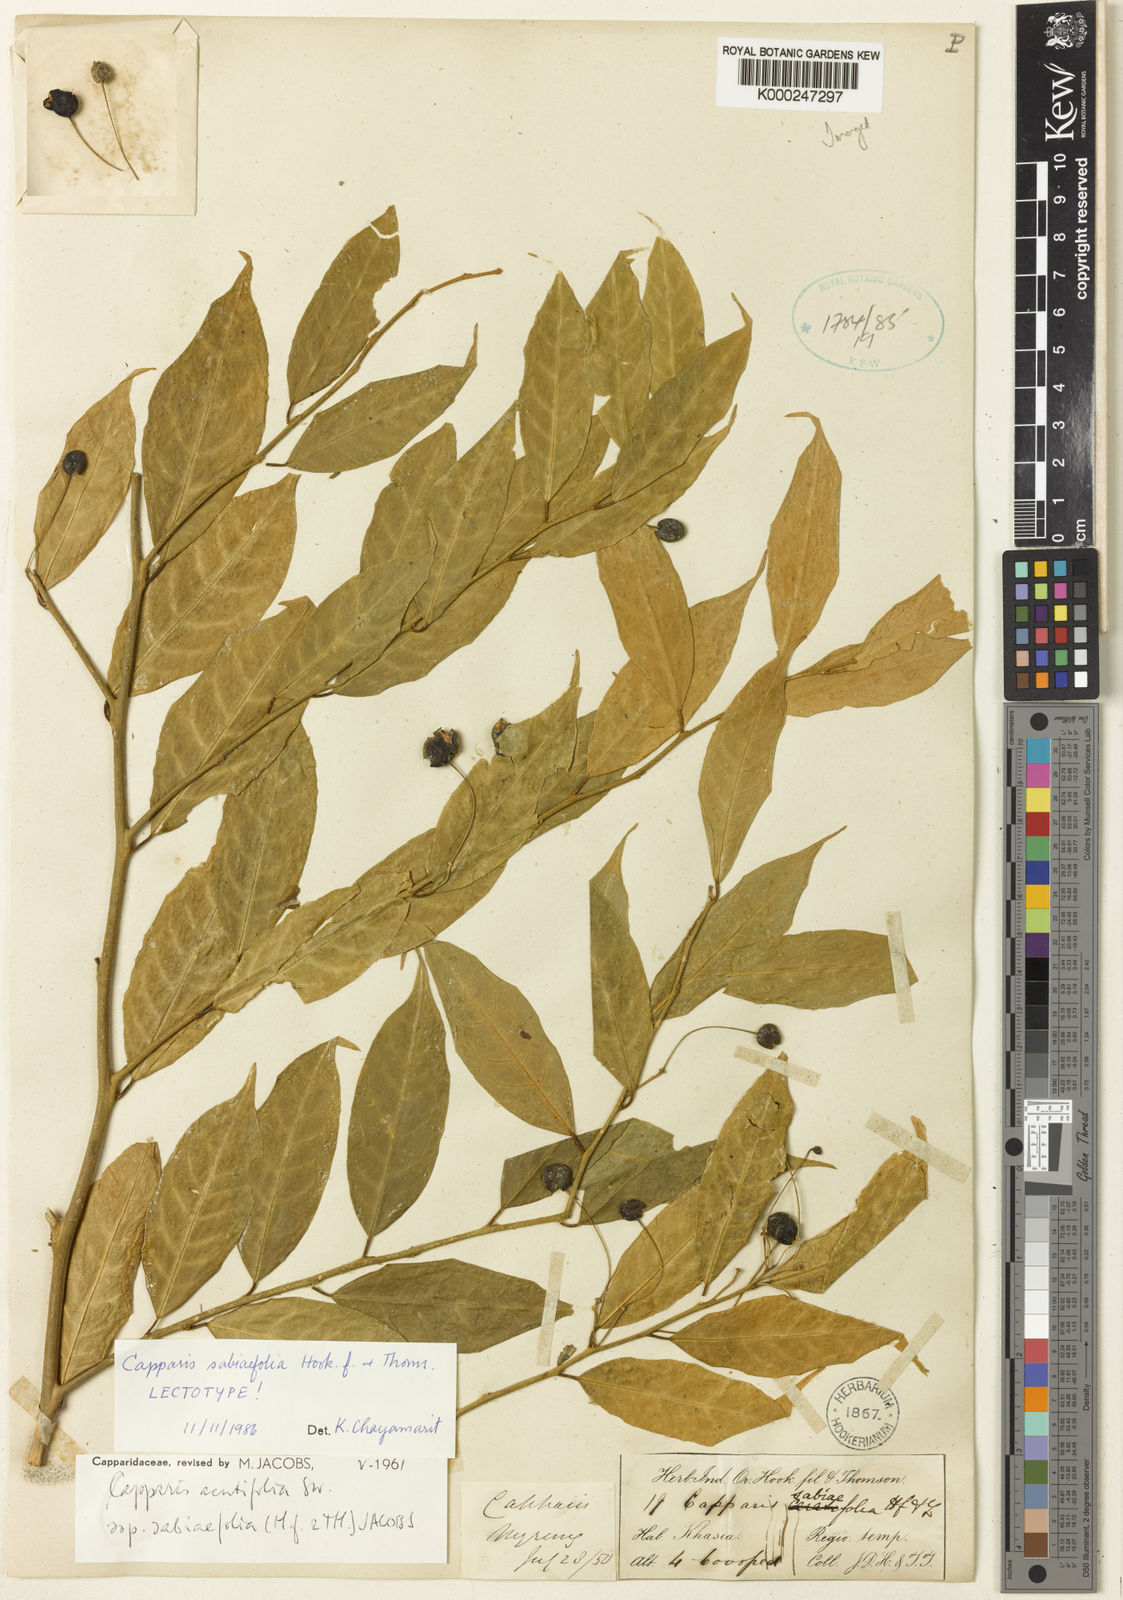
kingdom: Plantae
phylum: Tracheophyta
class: Magnoliopsida
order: Brassicales
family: Capparaceae
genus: Capparis
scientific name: Capparis acutifolia
